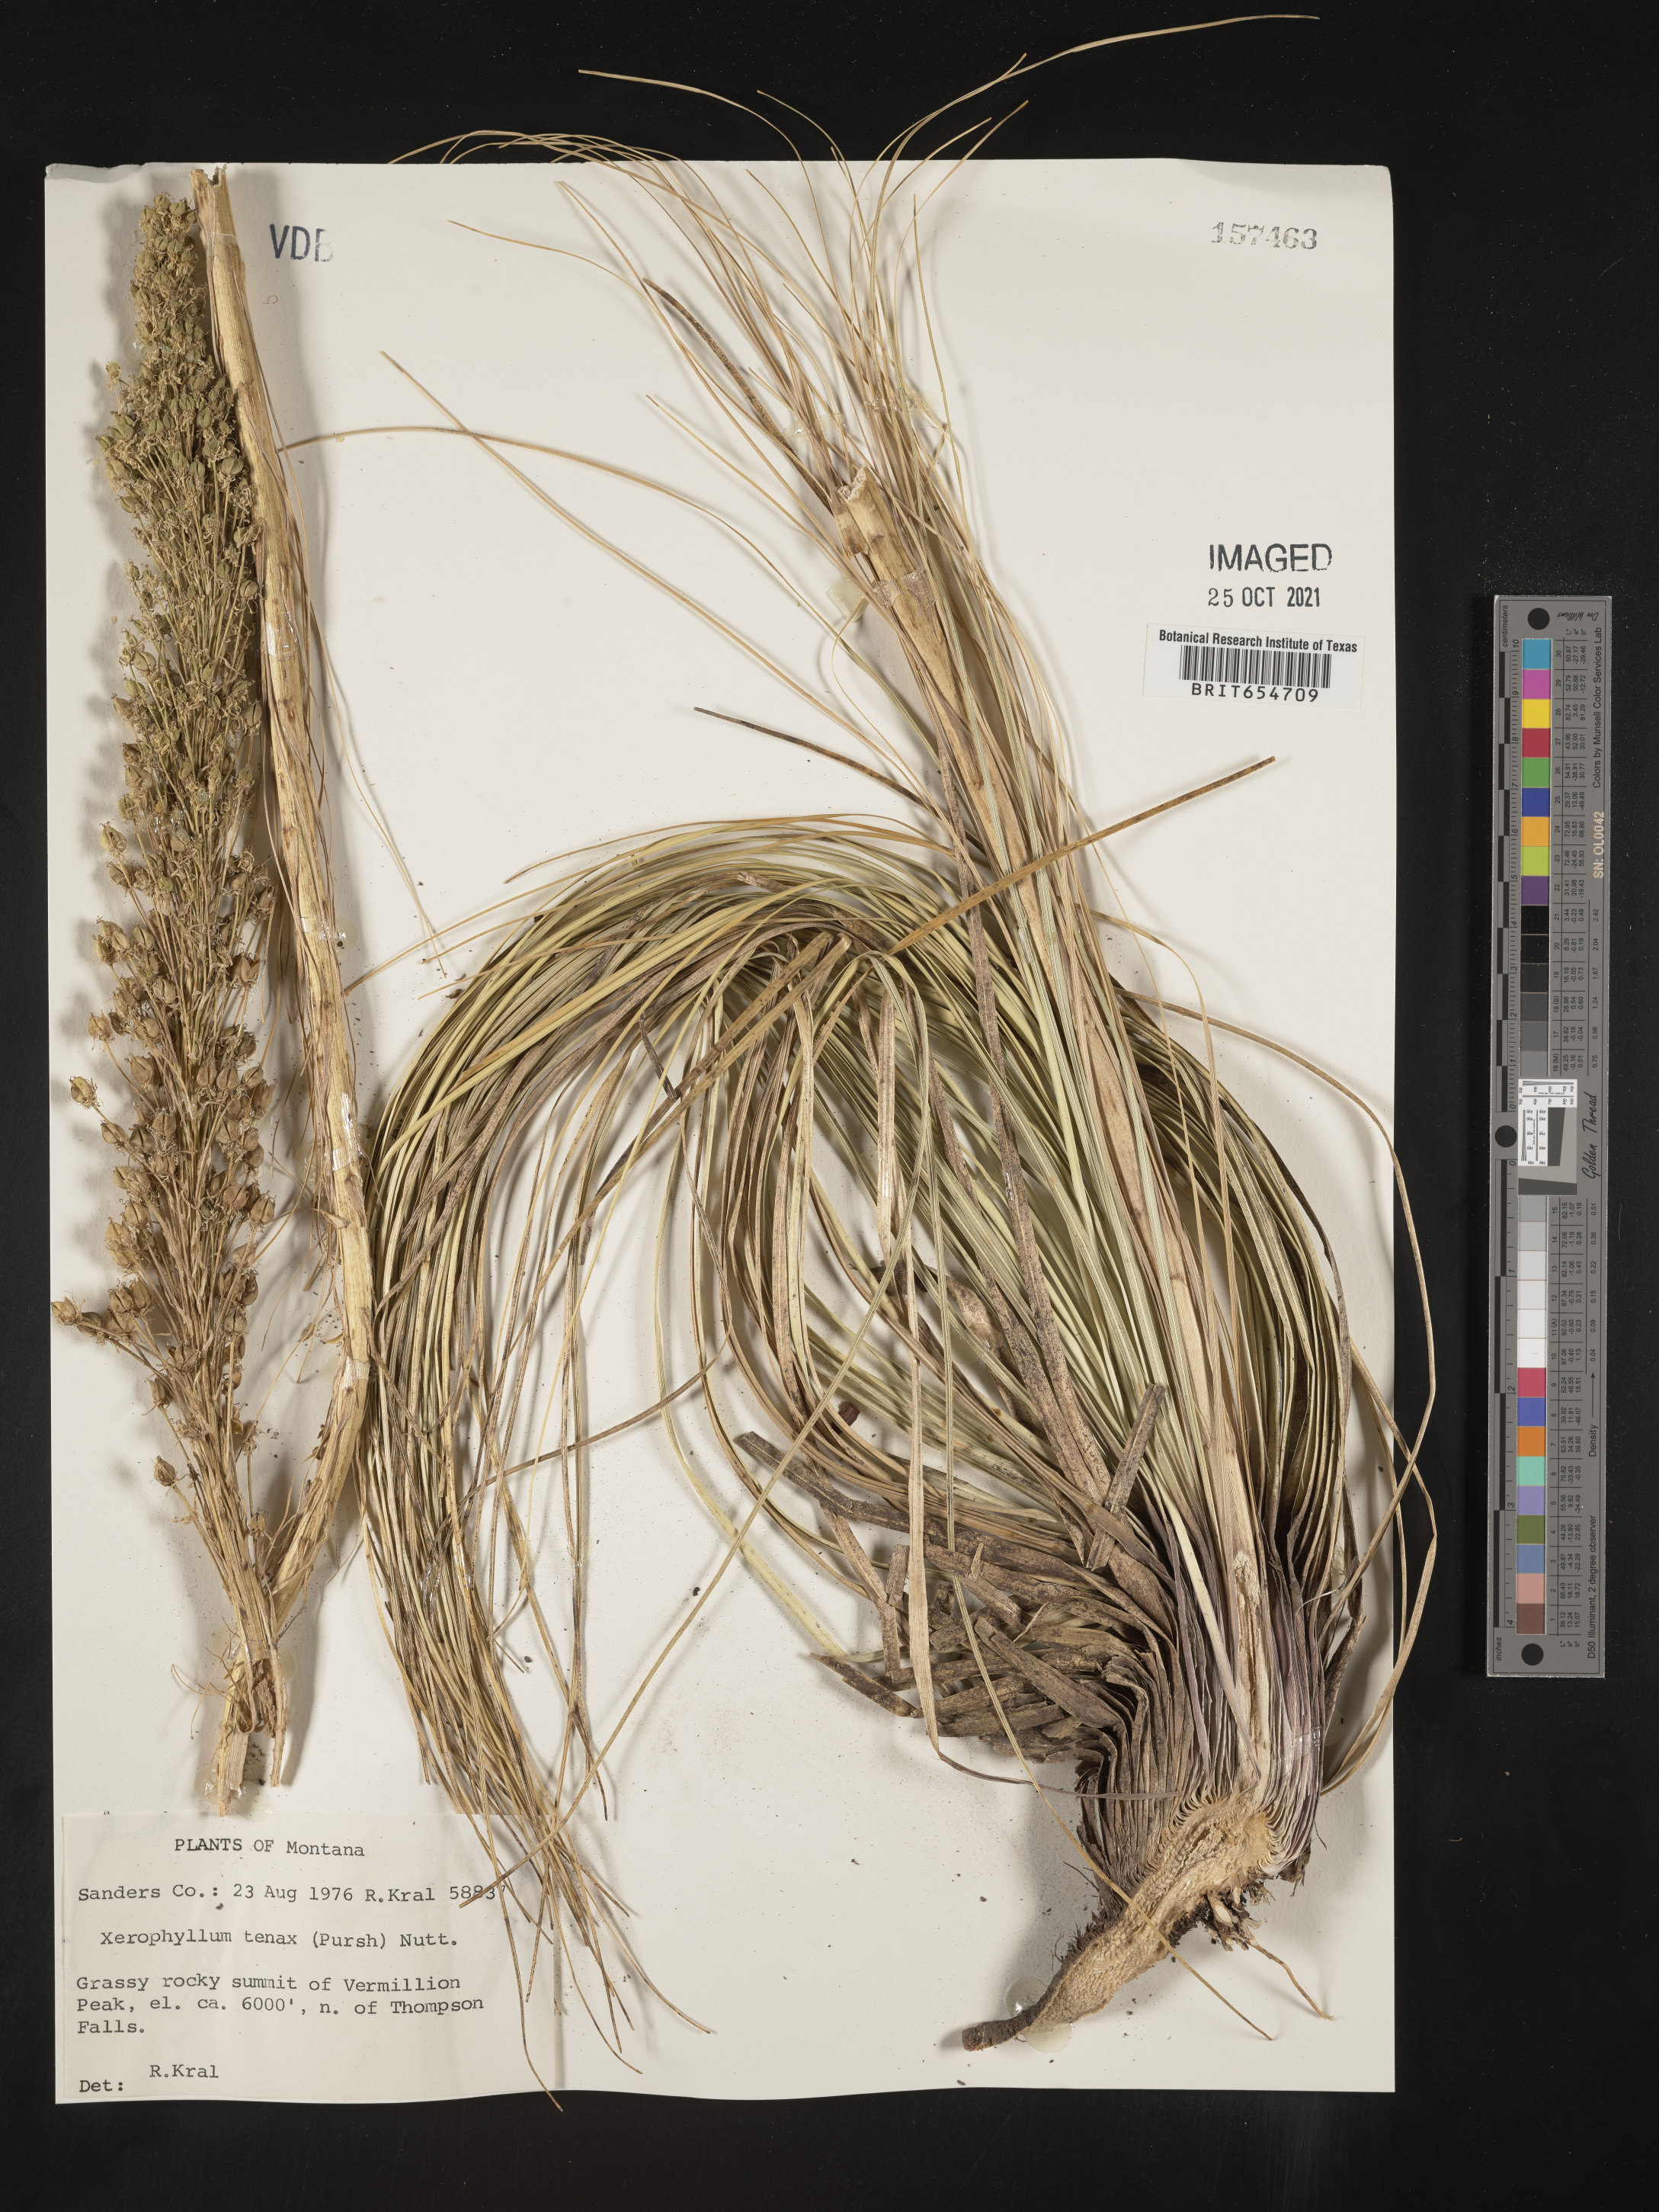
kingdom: Plantae
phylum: Tracheophyta
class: Liliopsida
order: Liliales
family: Melanthiaceae
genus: Xerophyllum
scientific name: Xerophyllum
